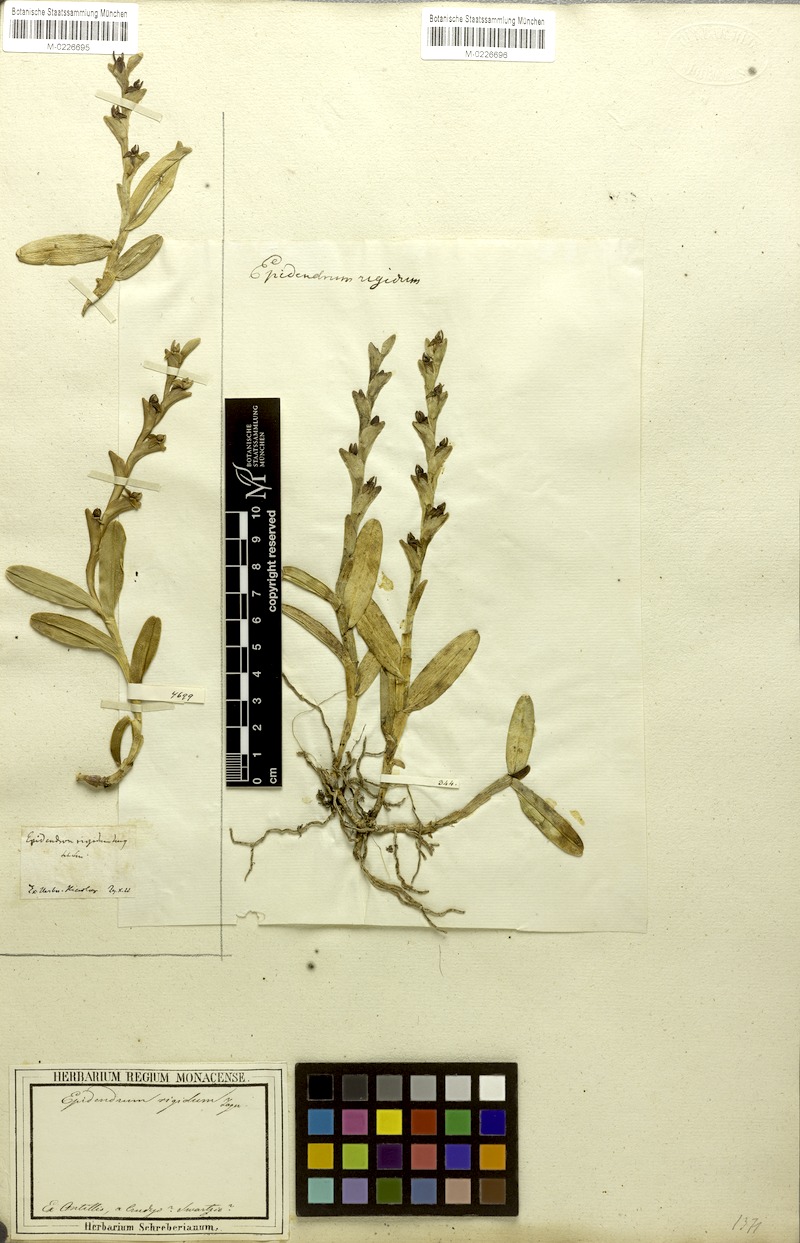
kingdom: Plantae
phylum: Tracheophyta
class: Liliopsida
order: Asparagales
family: Orchidaceae
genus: Epidendrum
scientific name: Epidendrum rigidum
